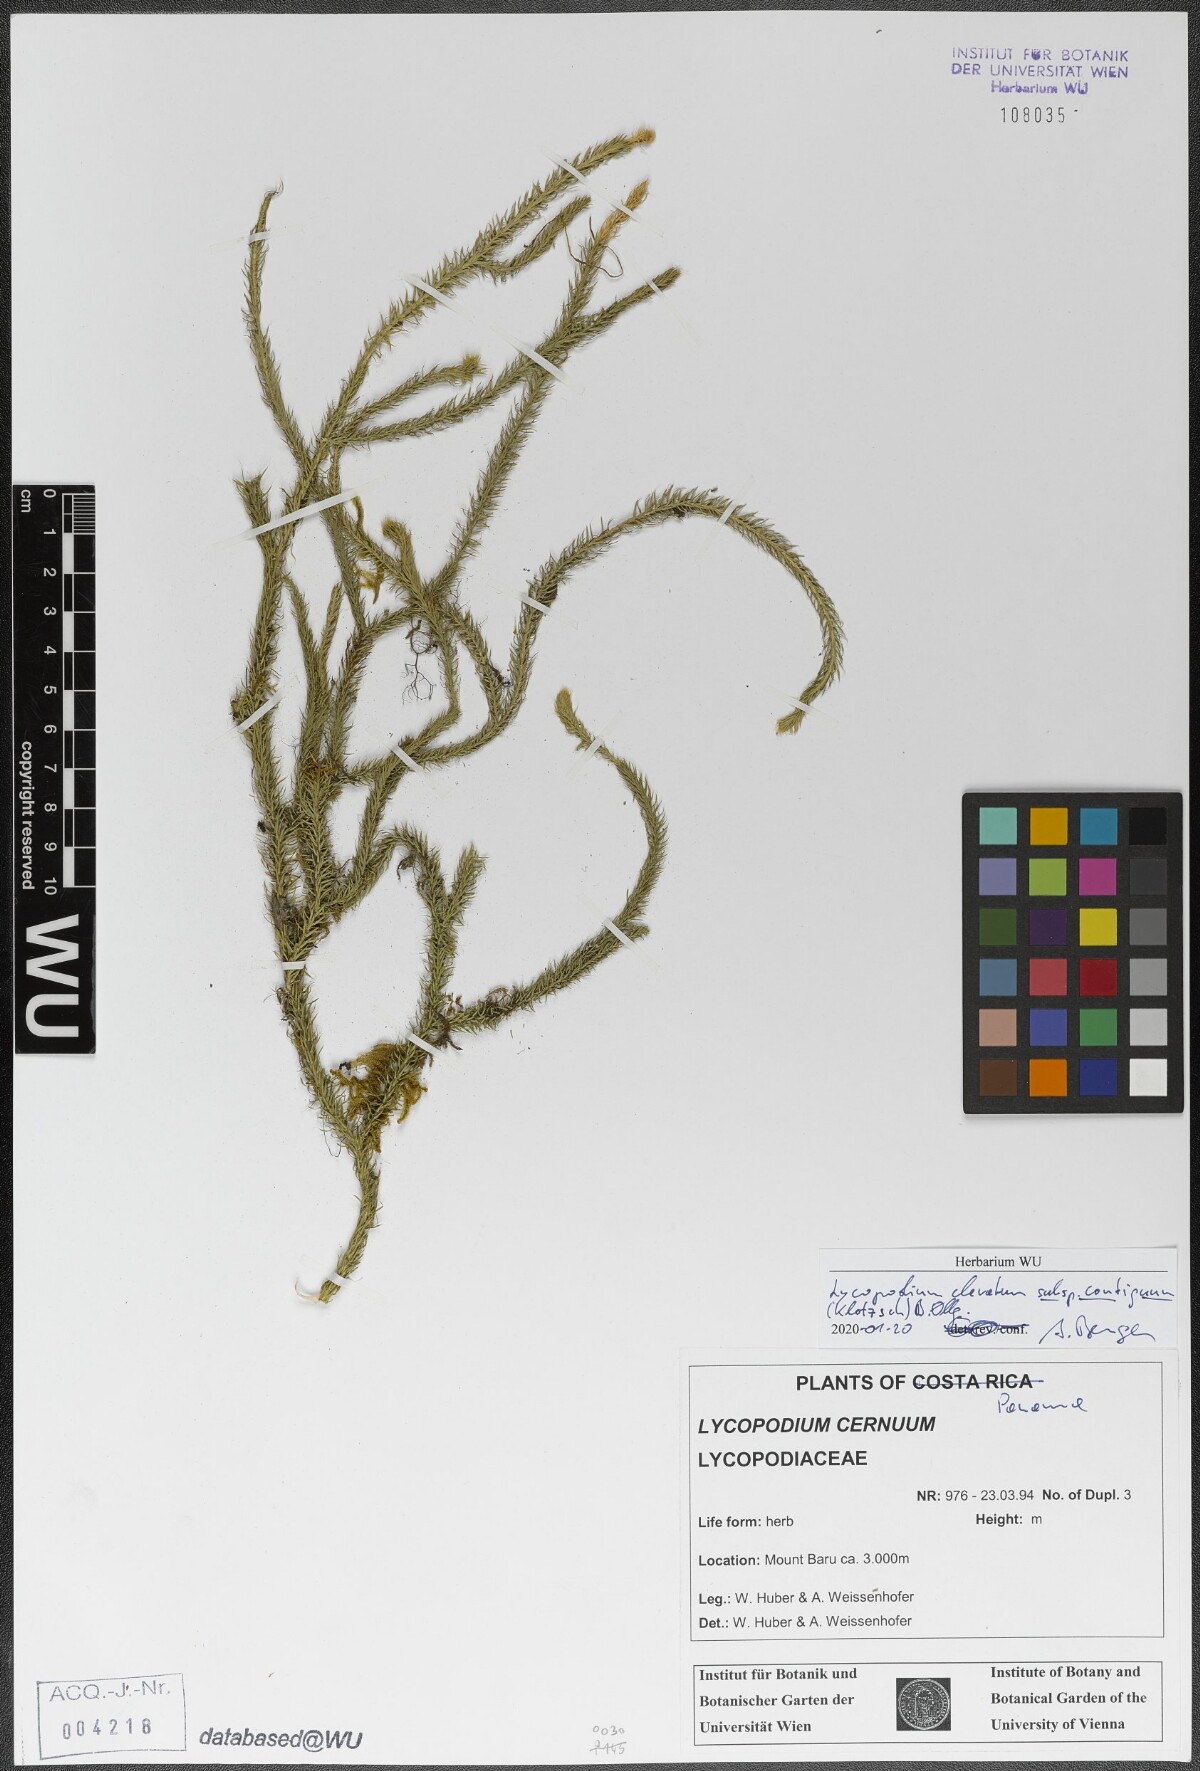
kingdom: Plantae
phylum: Tracheophyta
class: Lycopodiopsida
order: Lycopodiales
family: Lycopodiaceae
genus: Lycopodium
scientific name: Lycopodium clavatum
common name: Stag's-horn clubmoss
